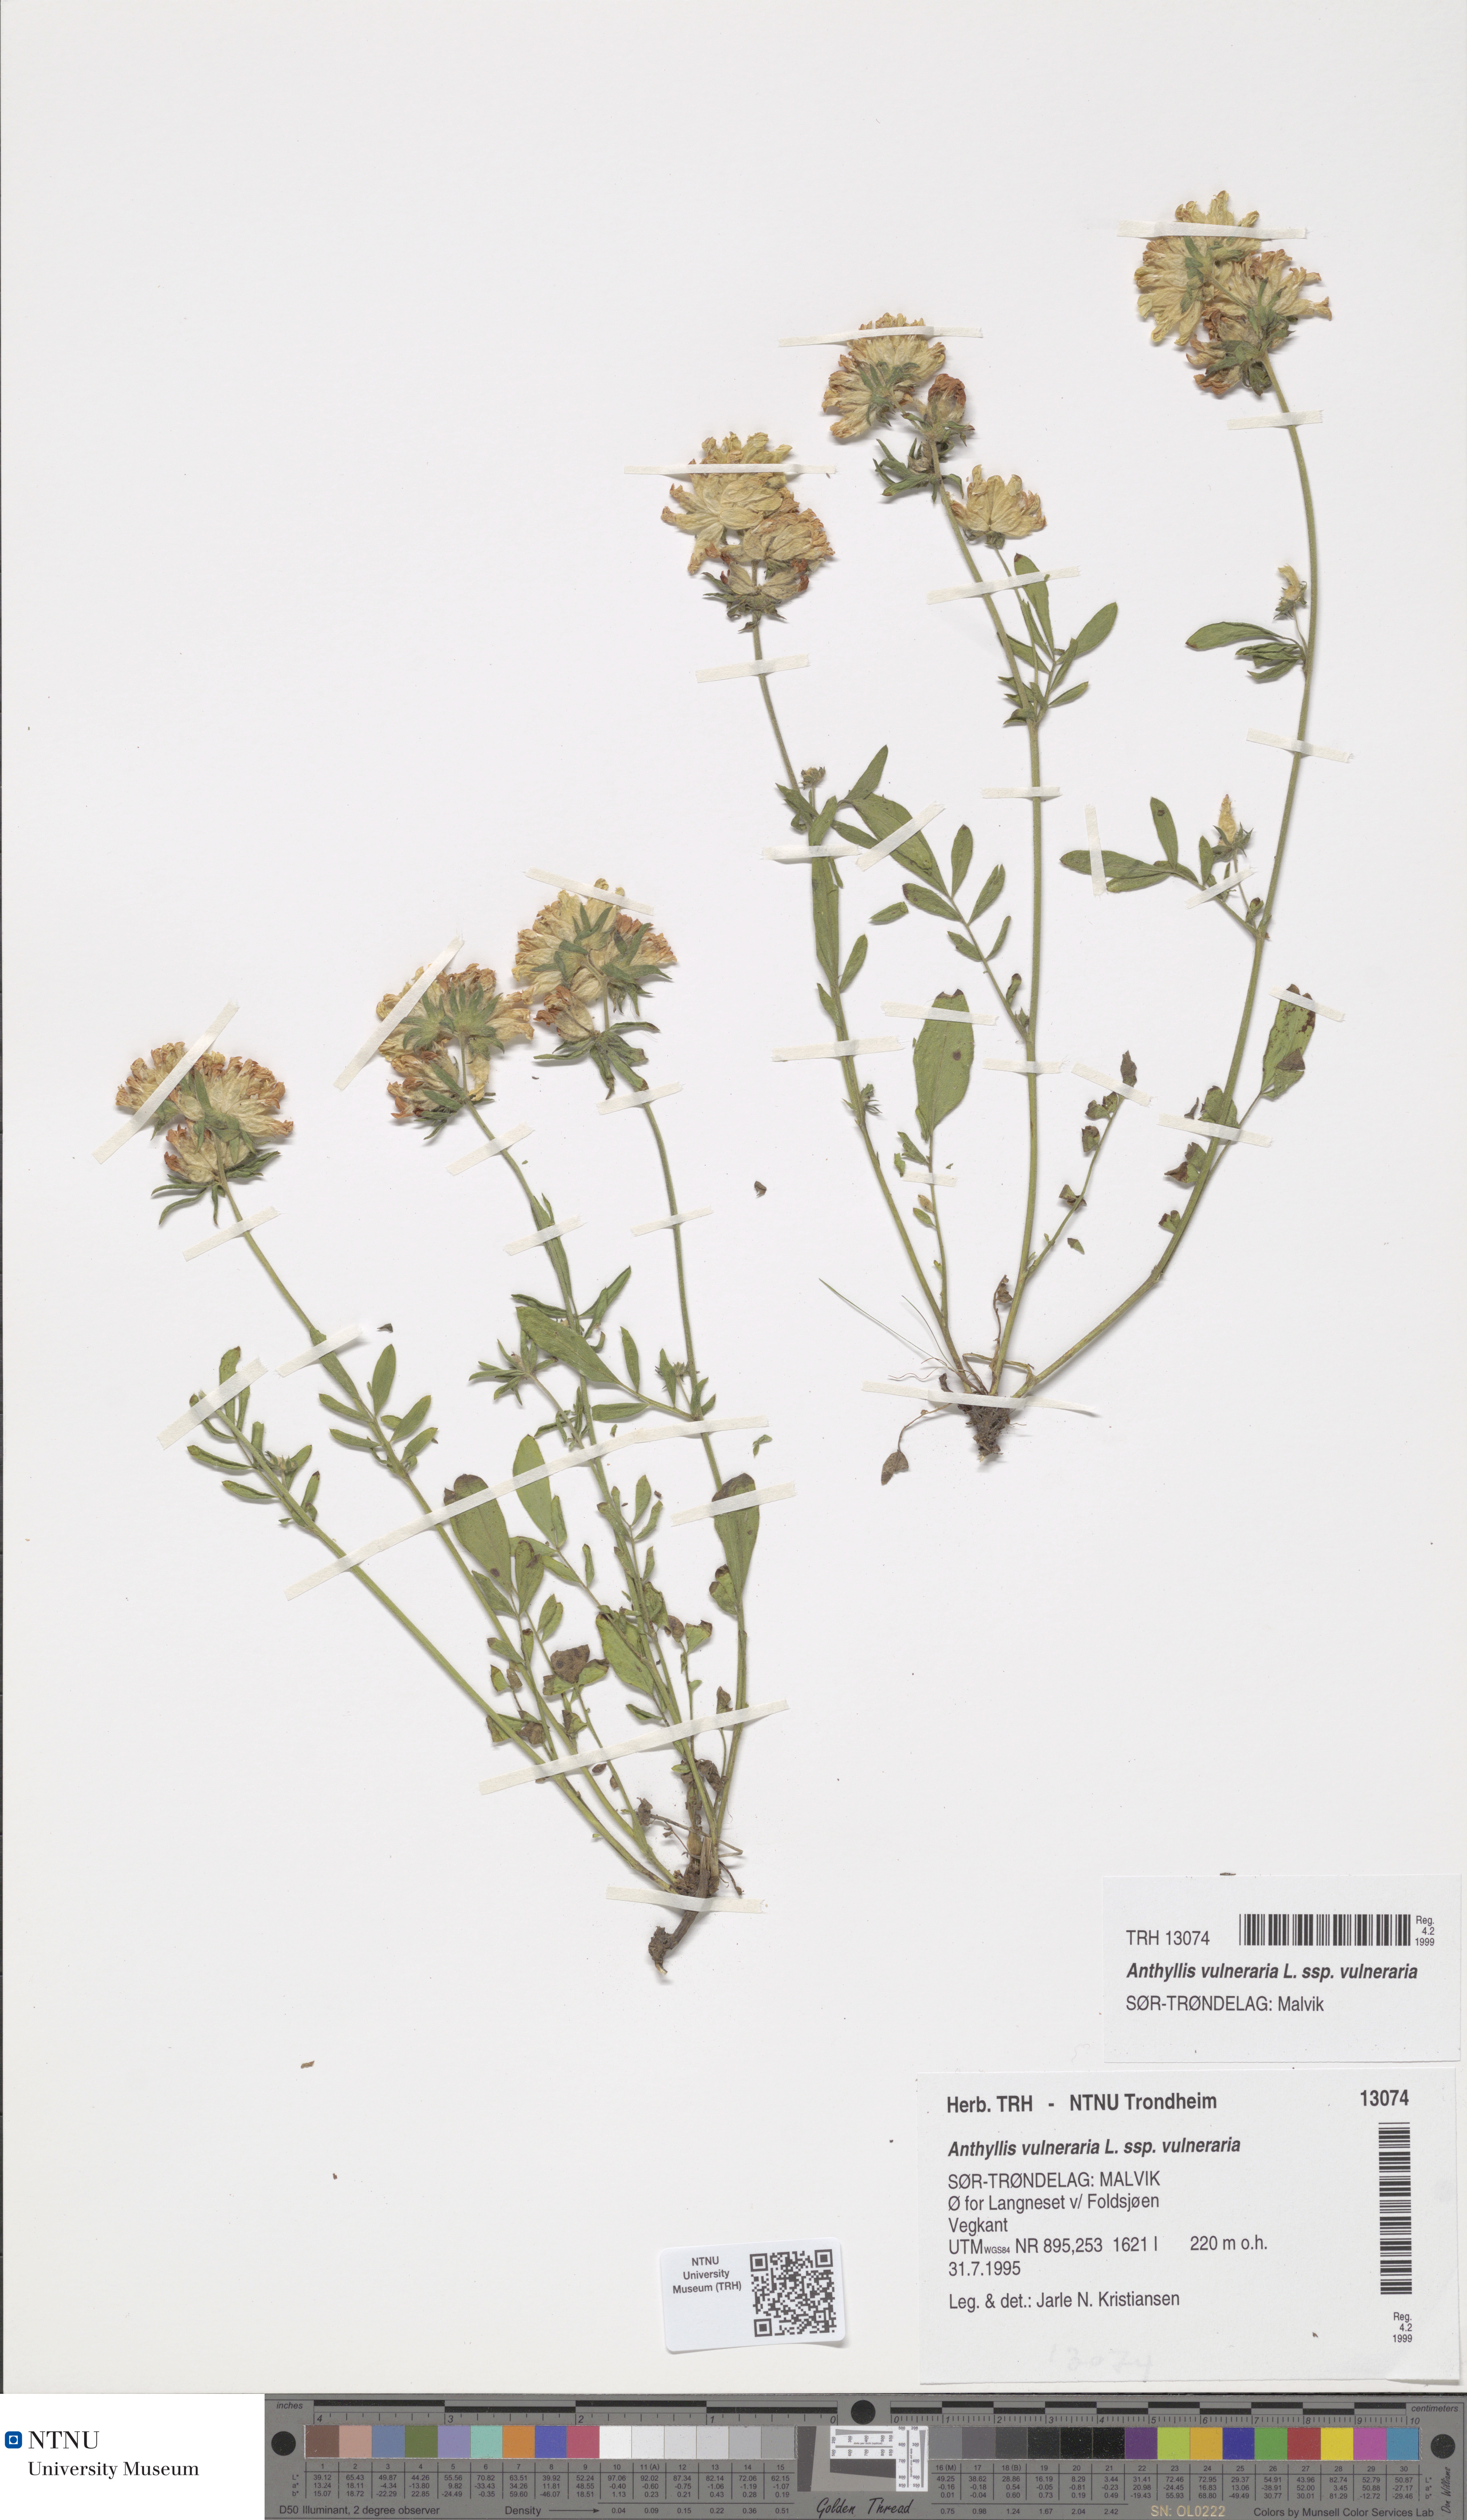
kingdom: Plantae
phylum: Tracheophyta
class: Magnoliopsida
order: Fabales
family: Fabaceae
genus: Anthyllis
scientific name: Anthyllis vulneraria
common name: Kidney vetch
